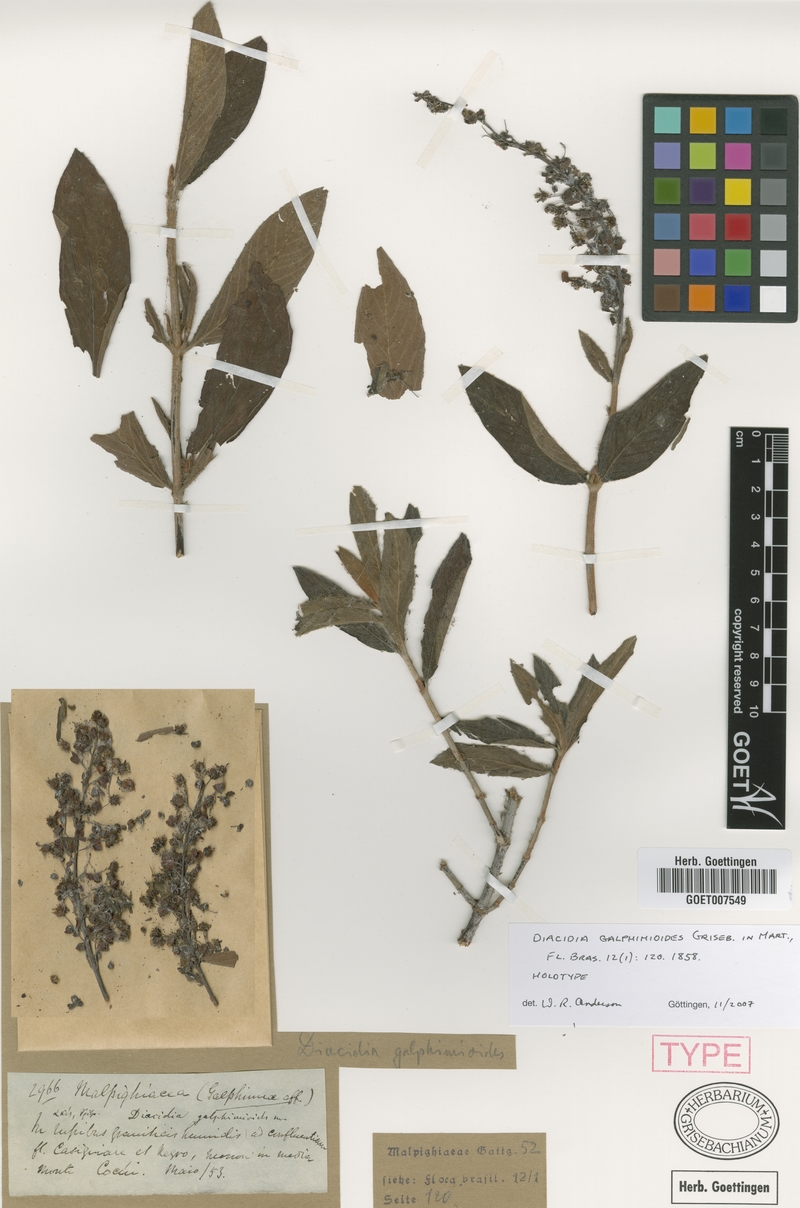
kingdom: Plantae
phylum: Tracheophyta
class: Magnoliopsida
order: Malpighiales
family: Malpighiaceae
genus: Diacidia
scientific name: Diacidia galphimioides
